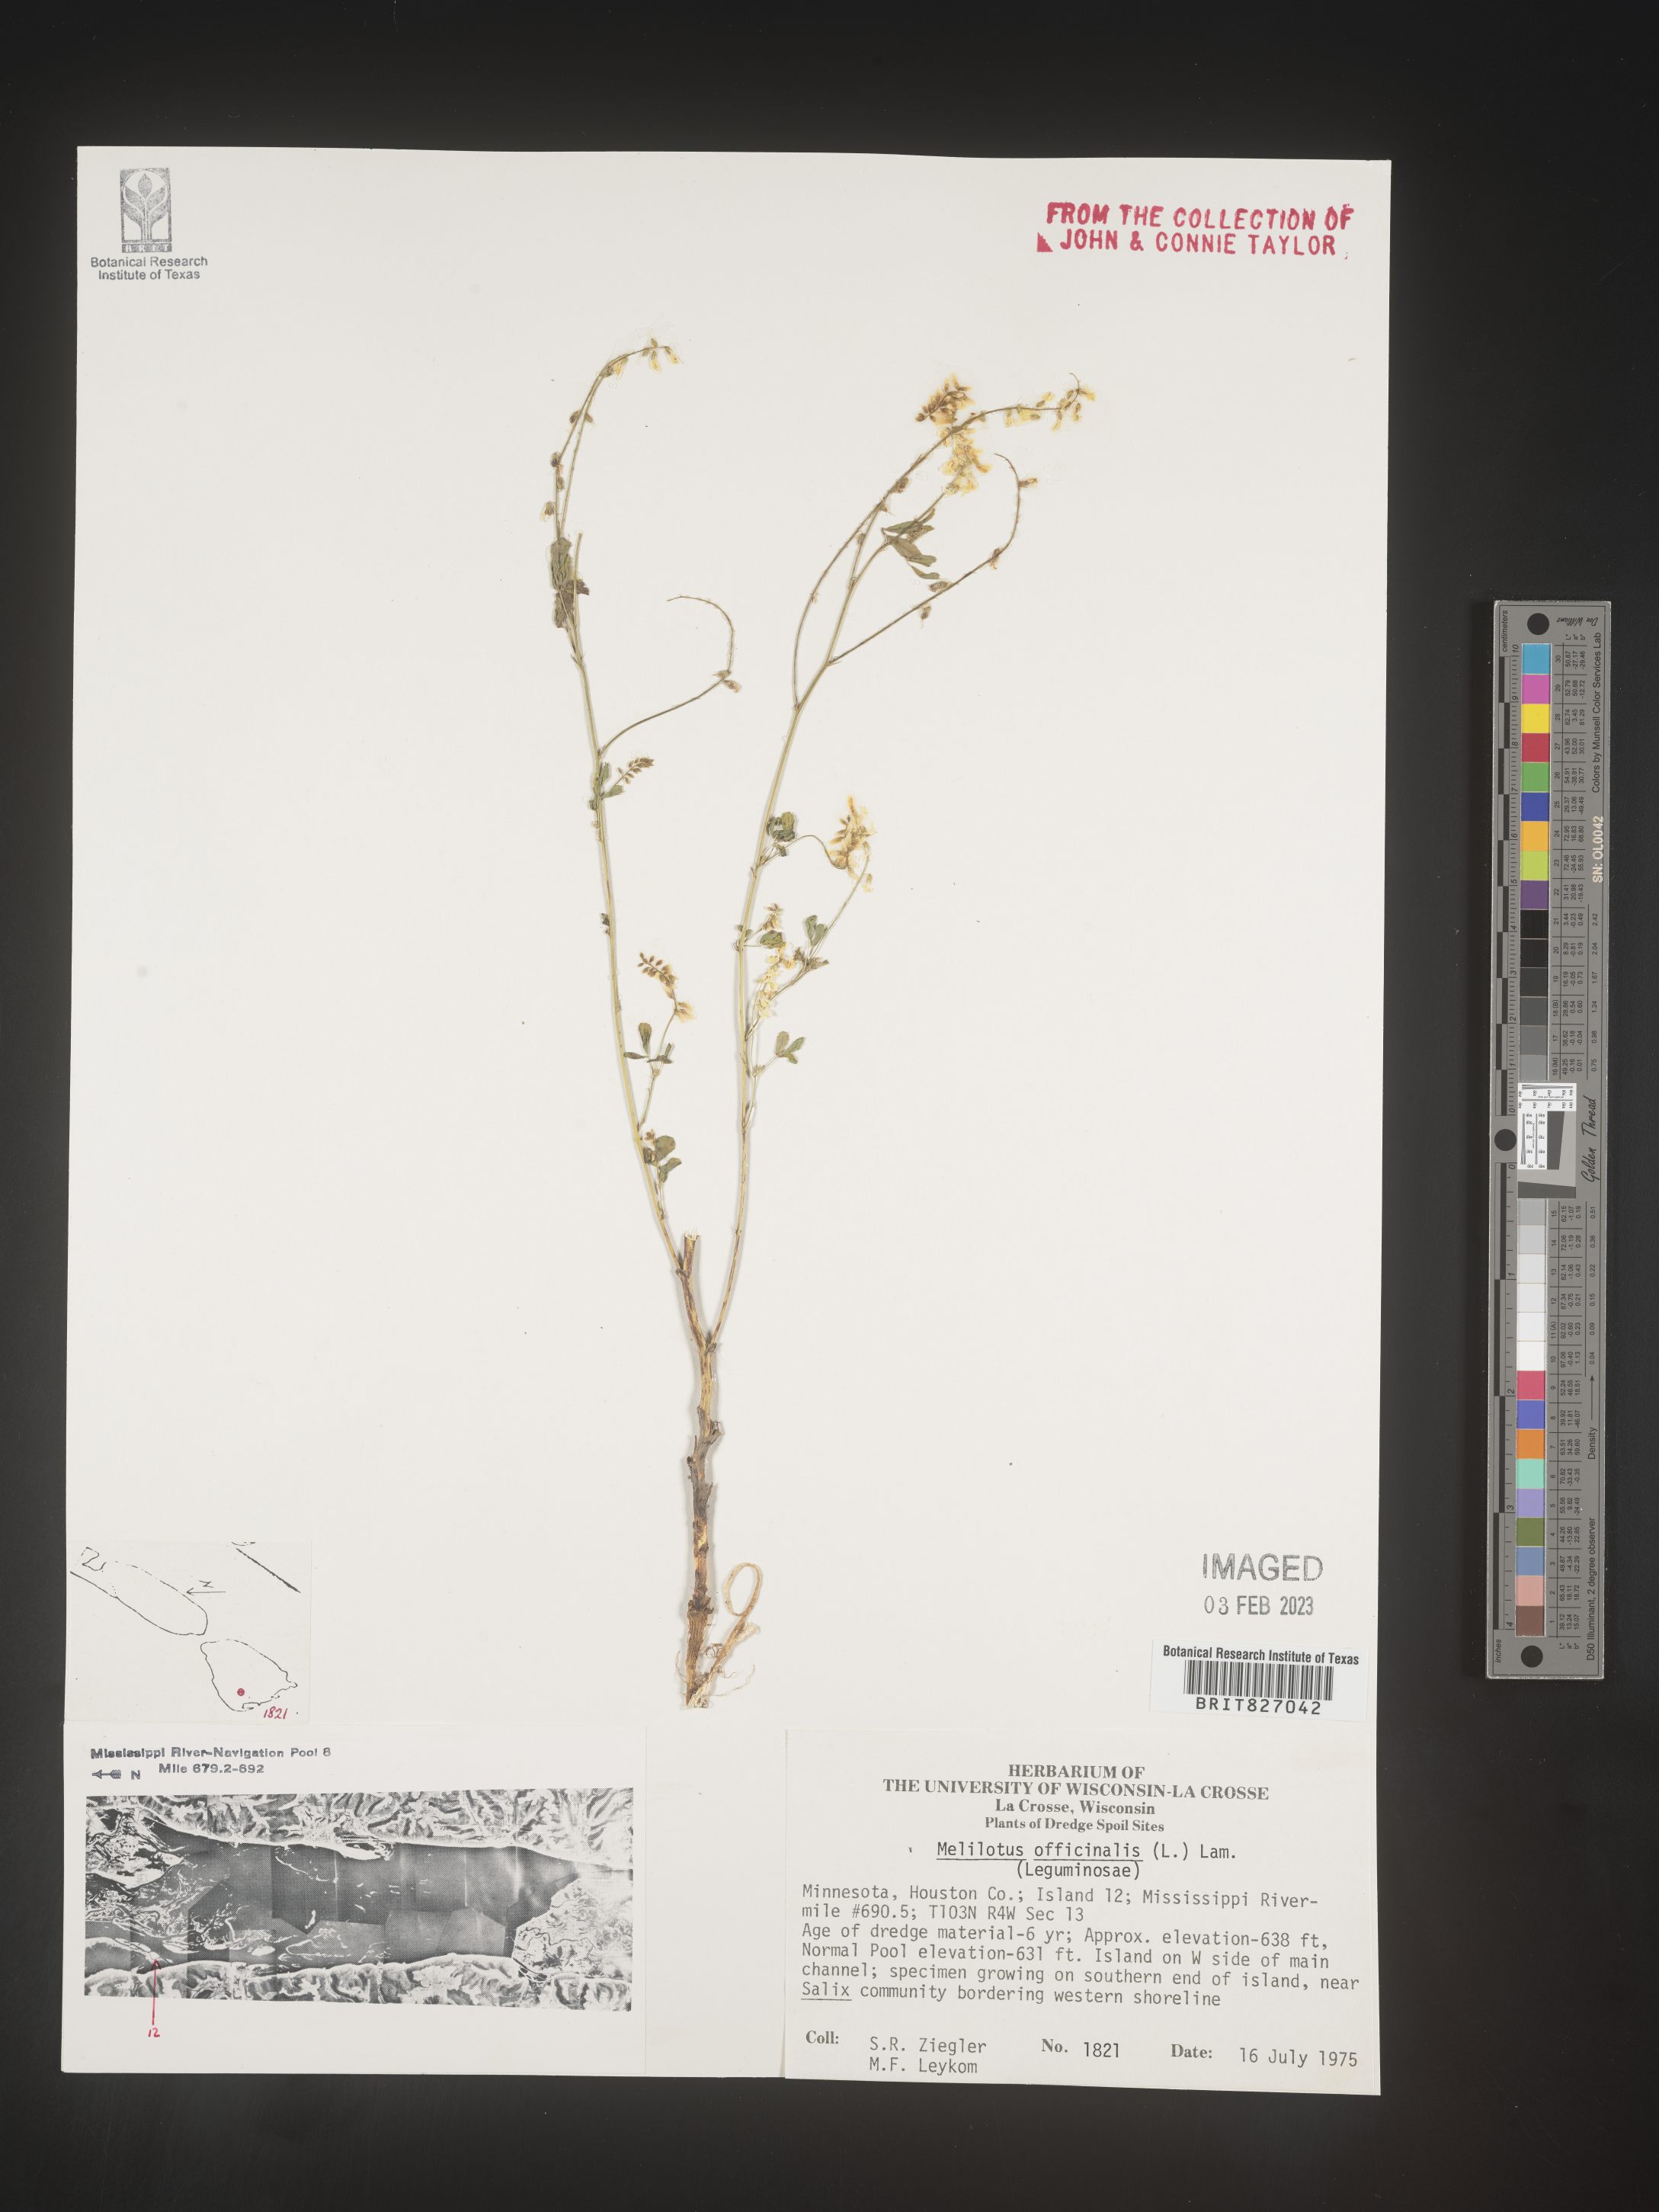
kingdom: Plantae
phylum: Tracheophyta
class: Magnoliopsida
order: Fabales
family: Fabaceae
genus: Melilotus
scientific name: Melilotus officinalis
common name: Sweetclover
